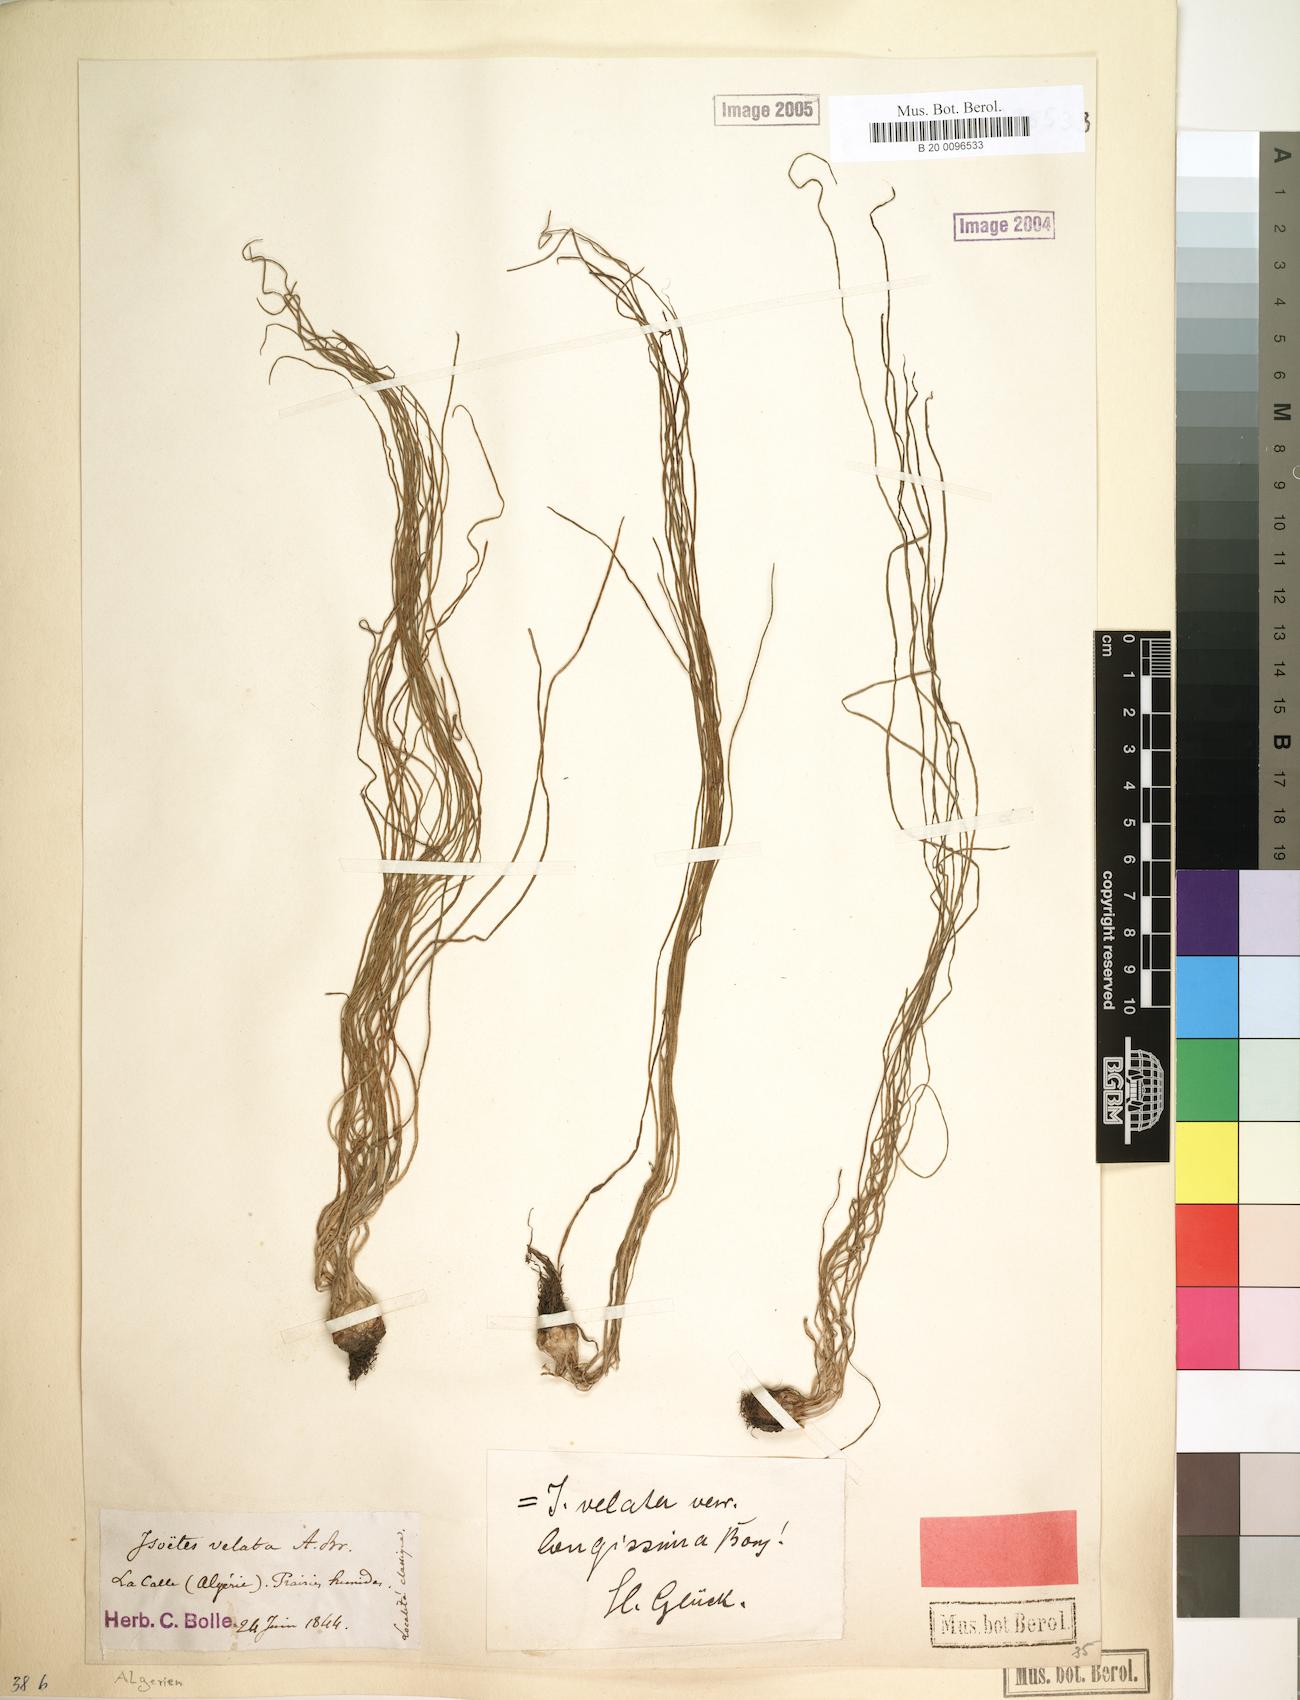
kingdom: Plantae
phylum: Tracheophyta
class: Lycopodiopsida
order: Isoetales
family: Isoetaceae
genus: Isoetes
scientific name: Isoetes longissima
